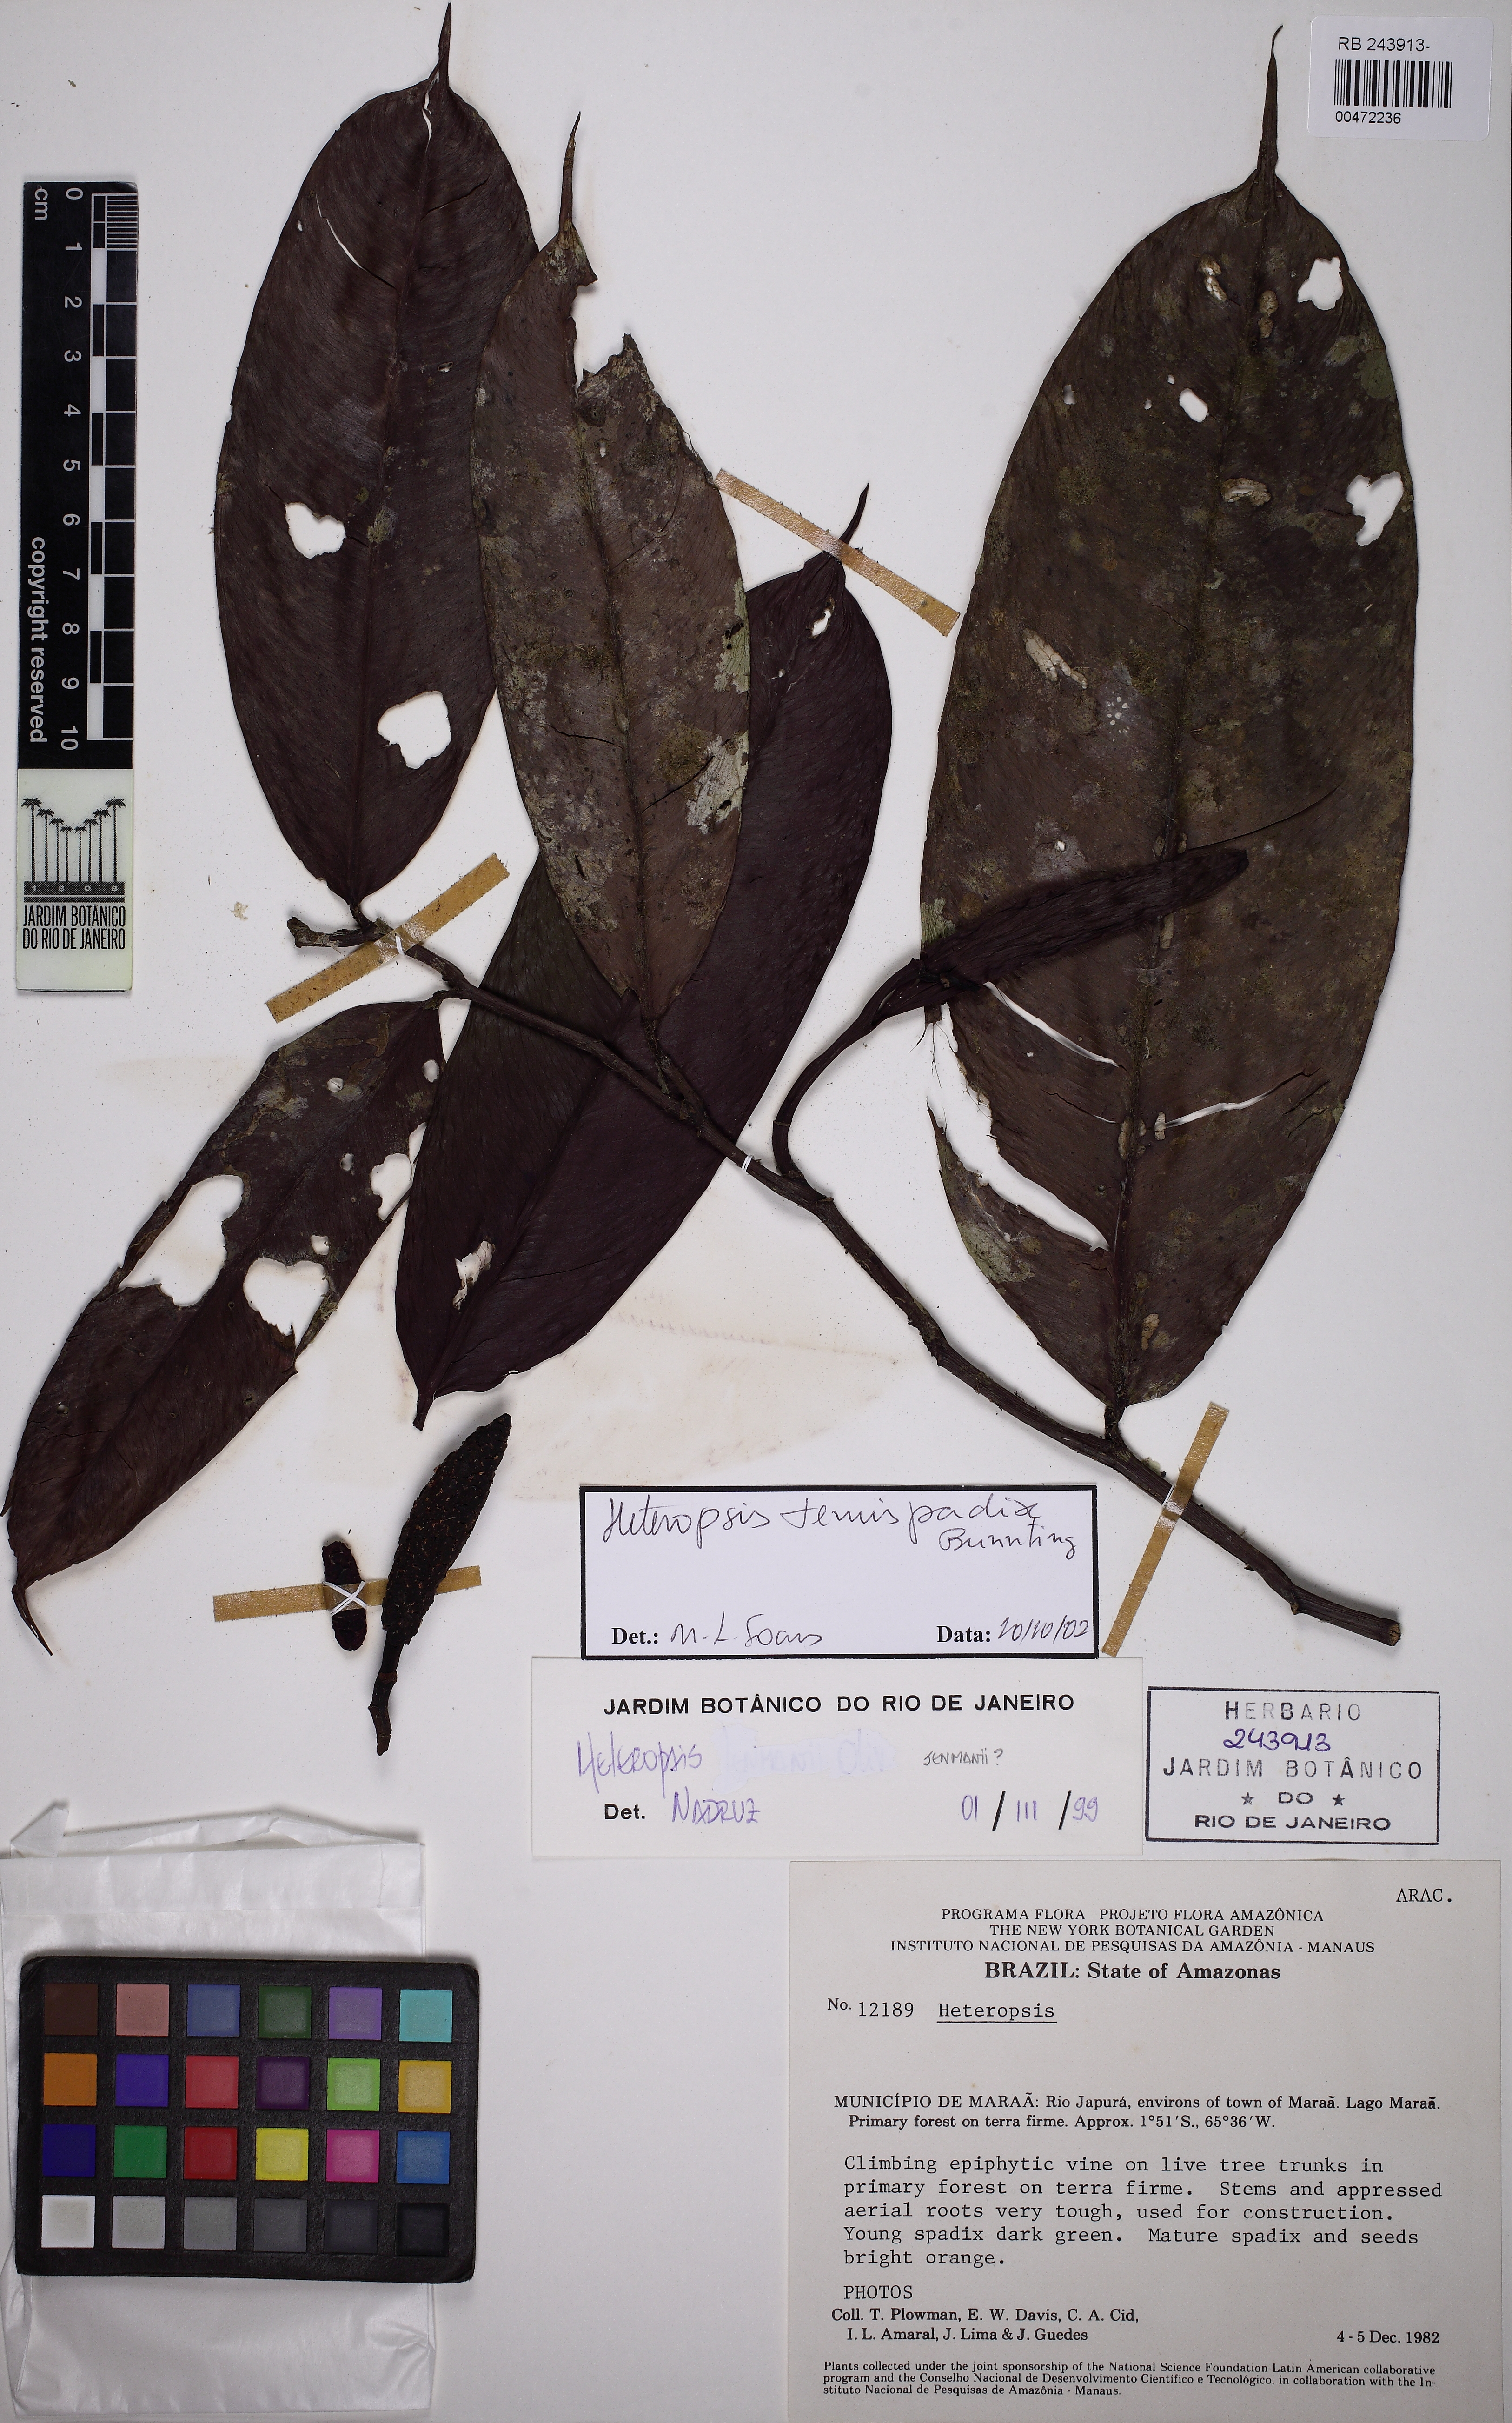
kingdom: Plantae
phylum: Tracheophyta
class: Liliopsida
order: Alismatales
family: Araceae
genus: Heteropsis
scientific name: Heteropsis tenuispadix
